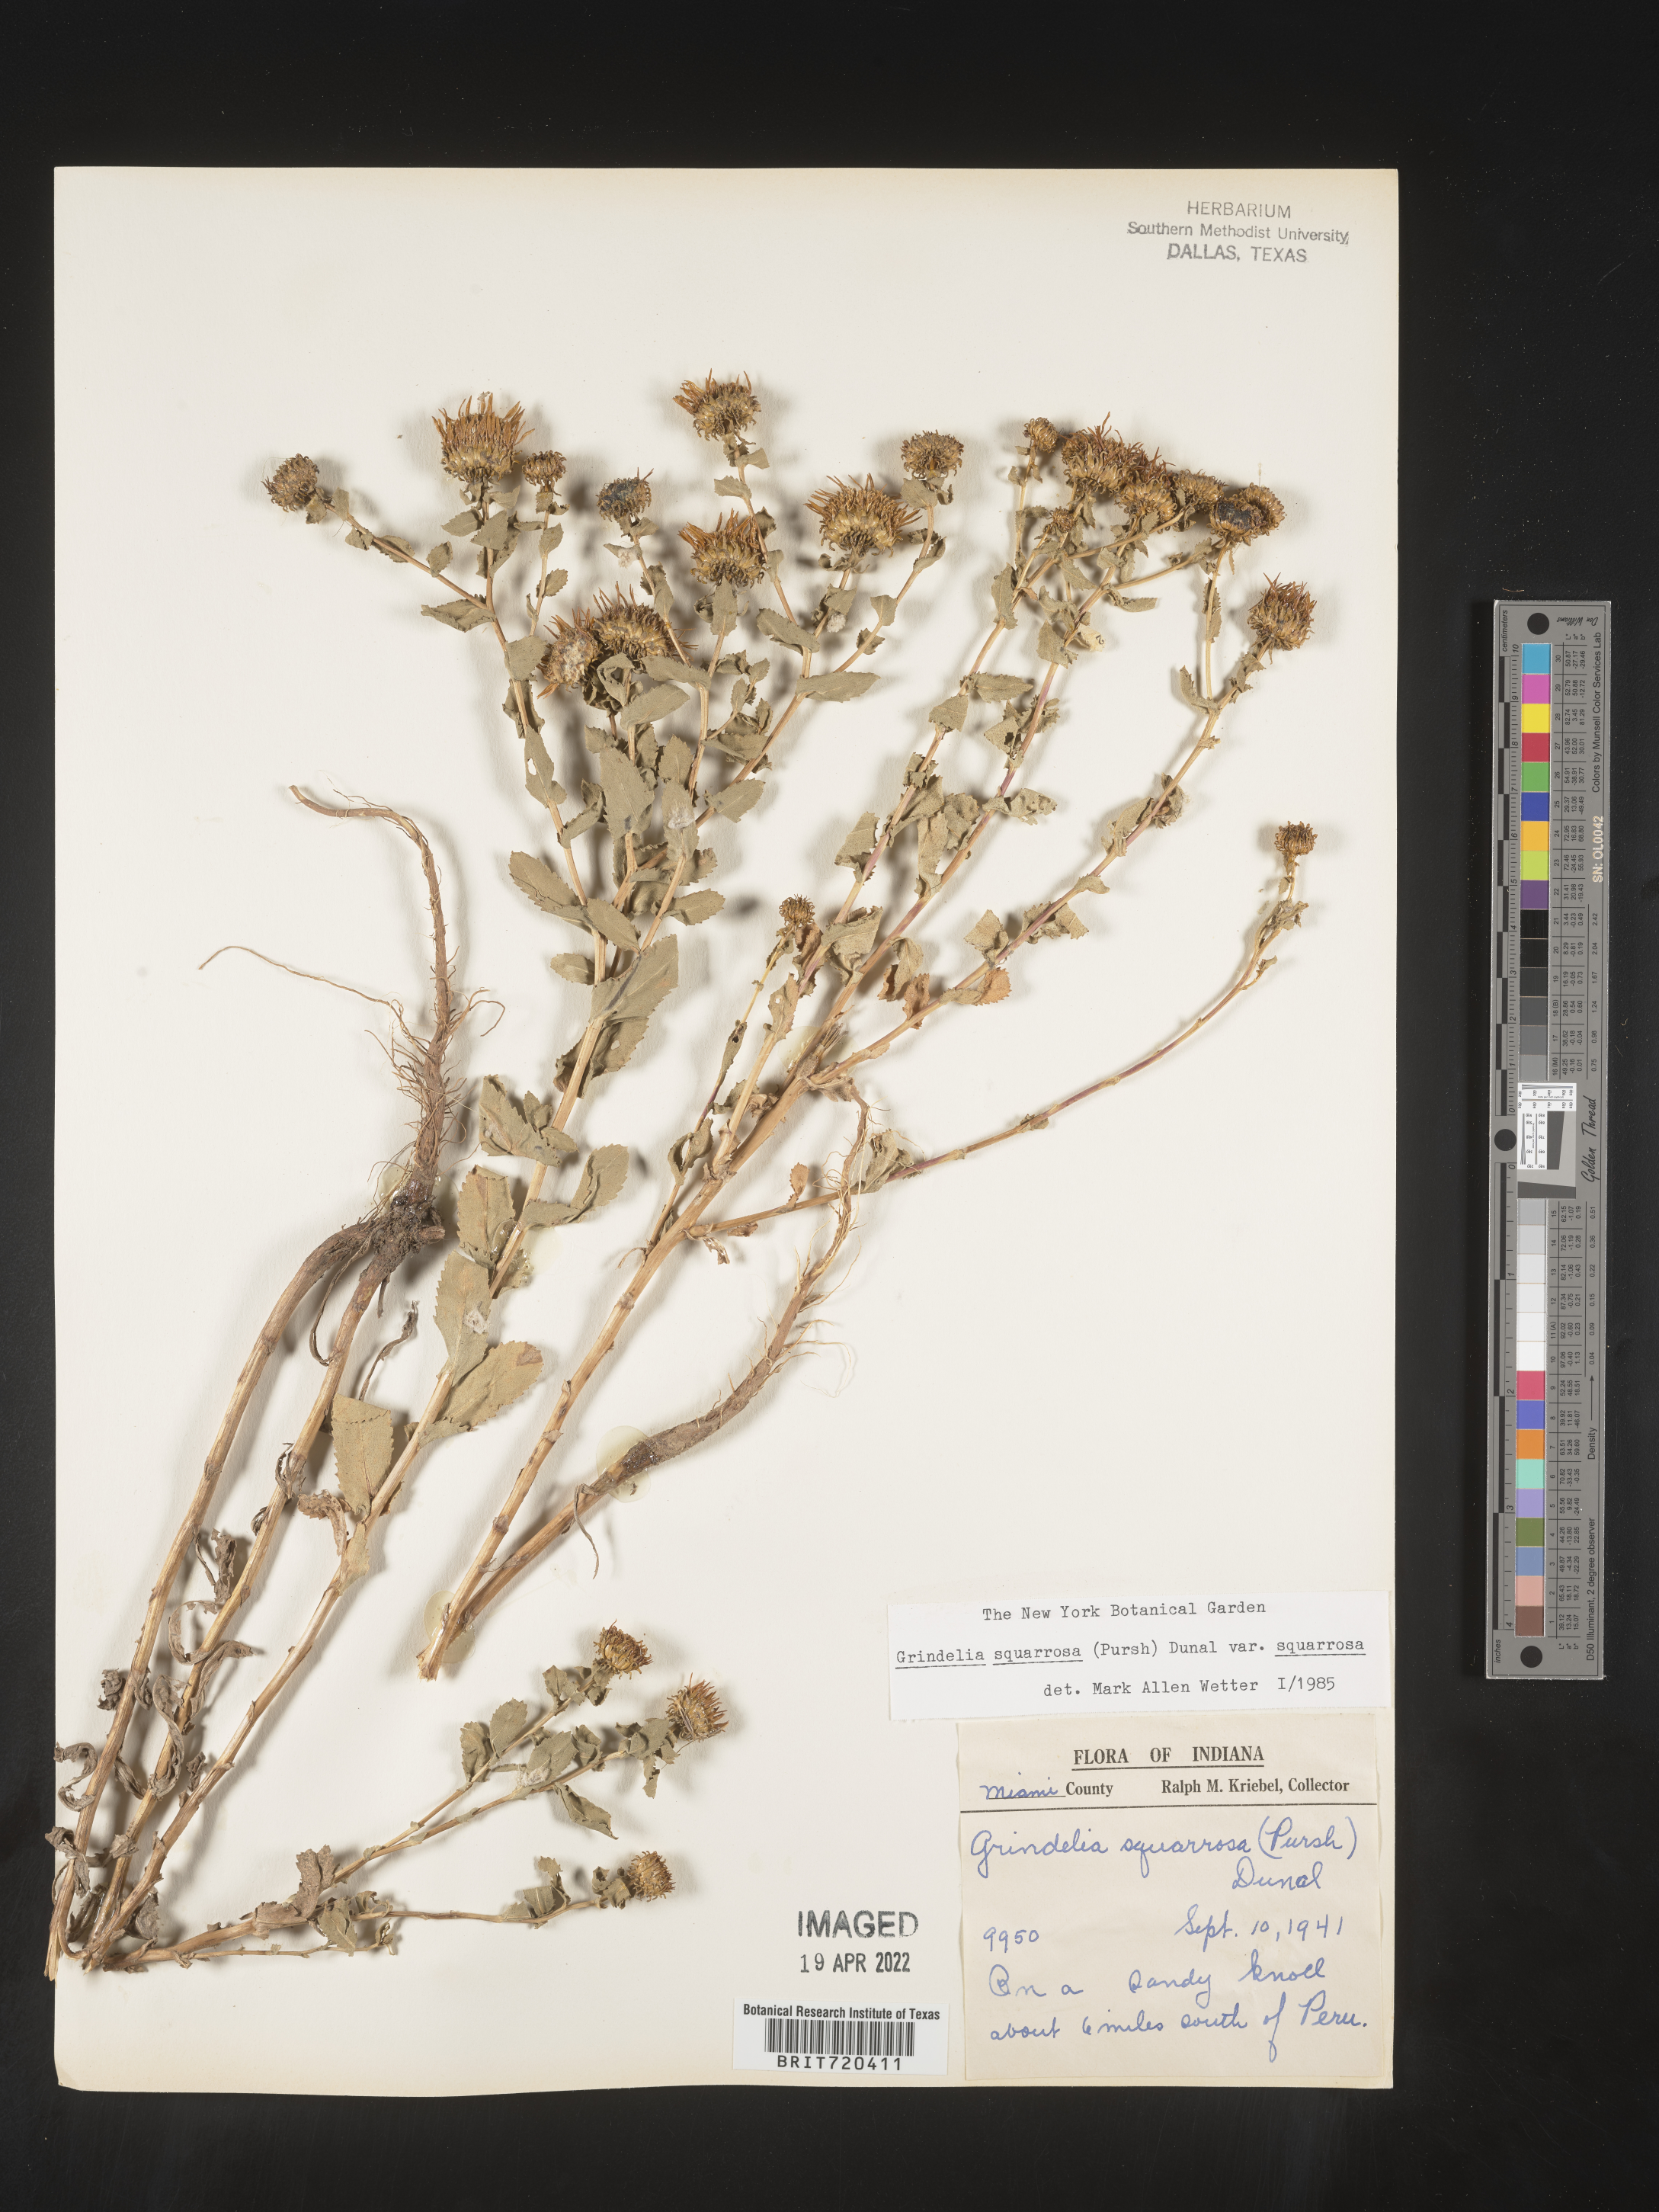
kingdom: Plantae
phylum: Tracheophyta
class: Magnoliopsida
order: Asterales
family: Asteraceae
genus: Grindelia
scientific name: Grindelia squarrosa
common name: Curly-cup gumweed
